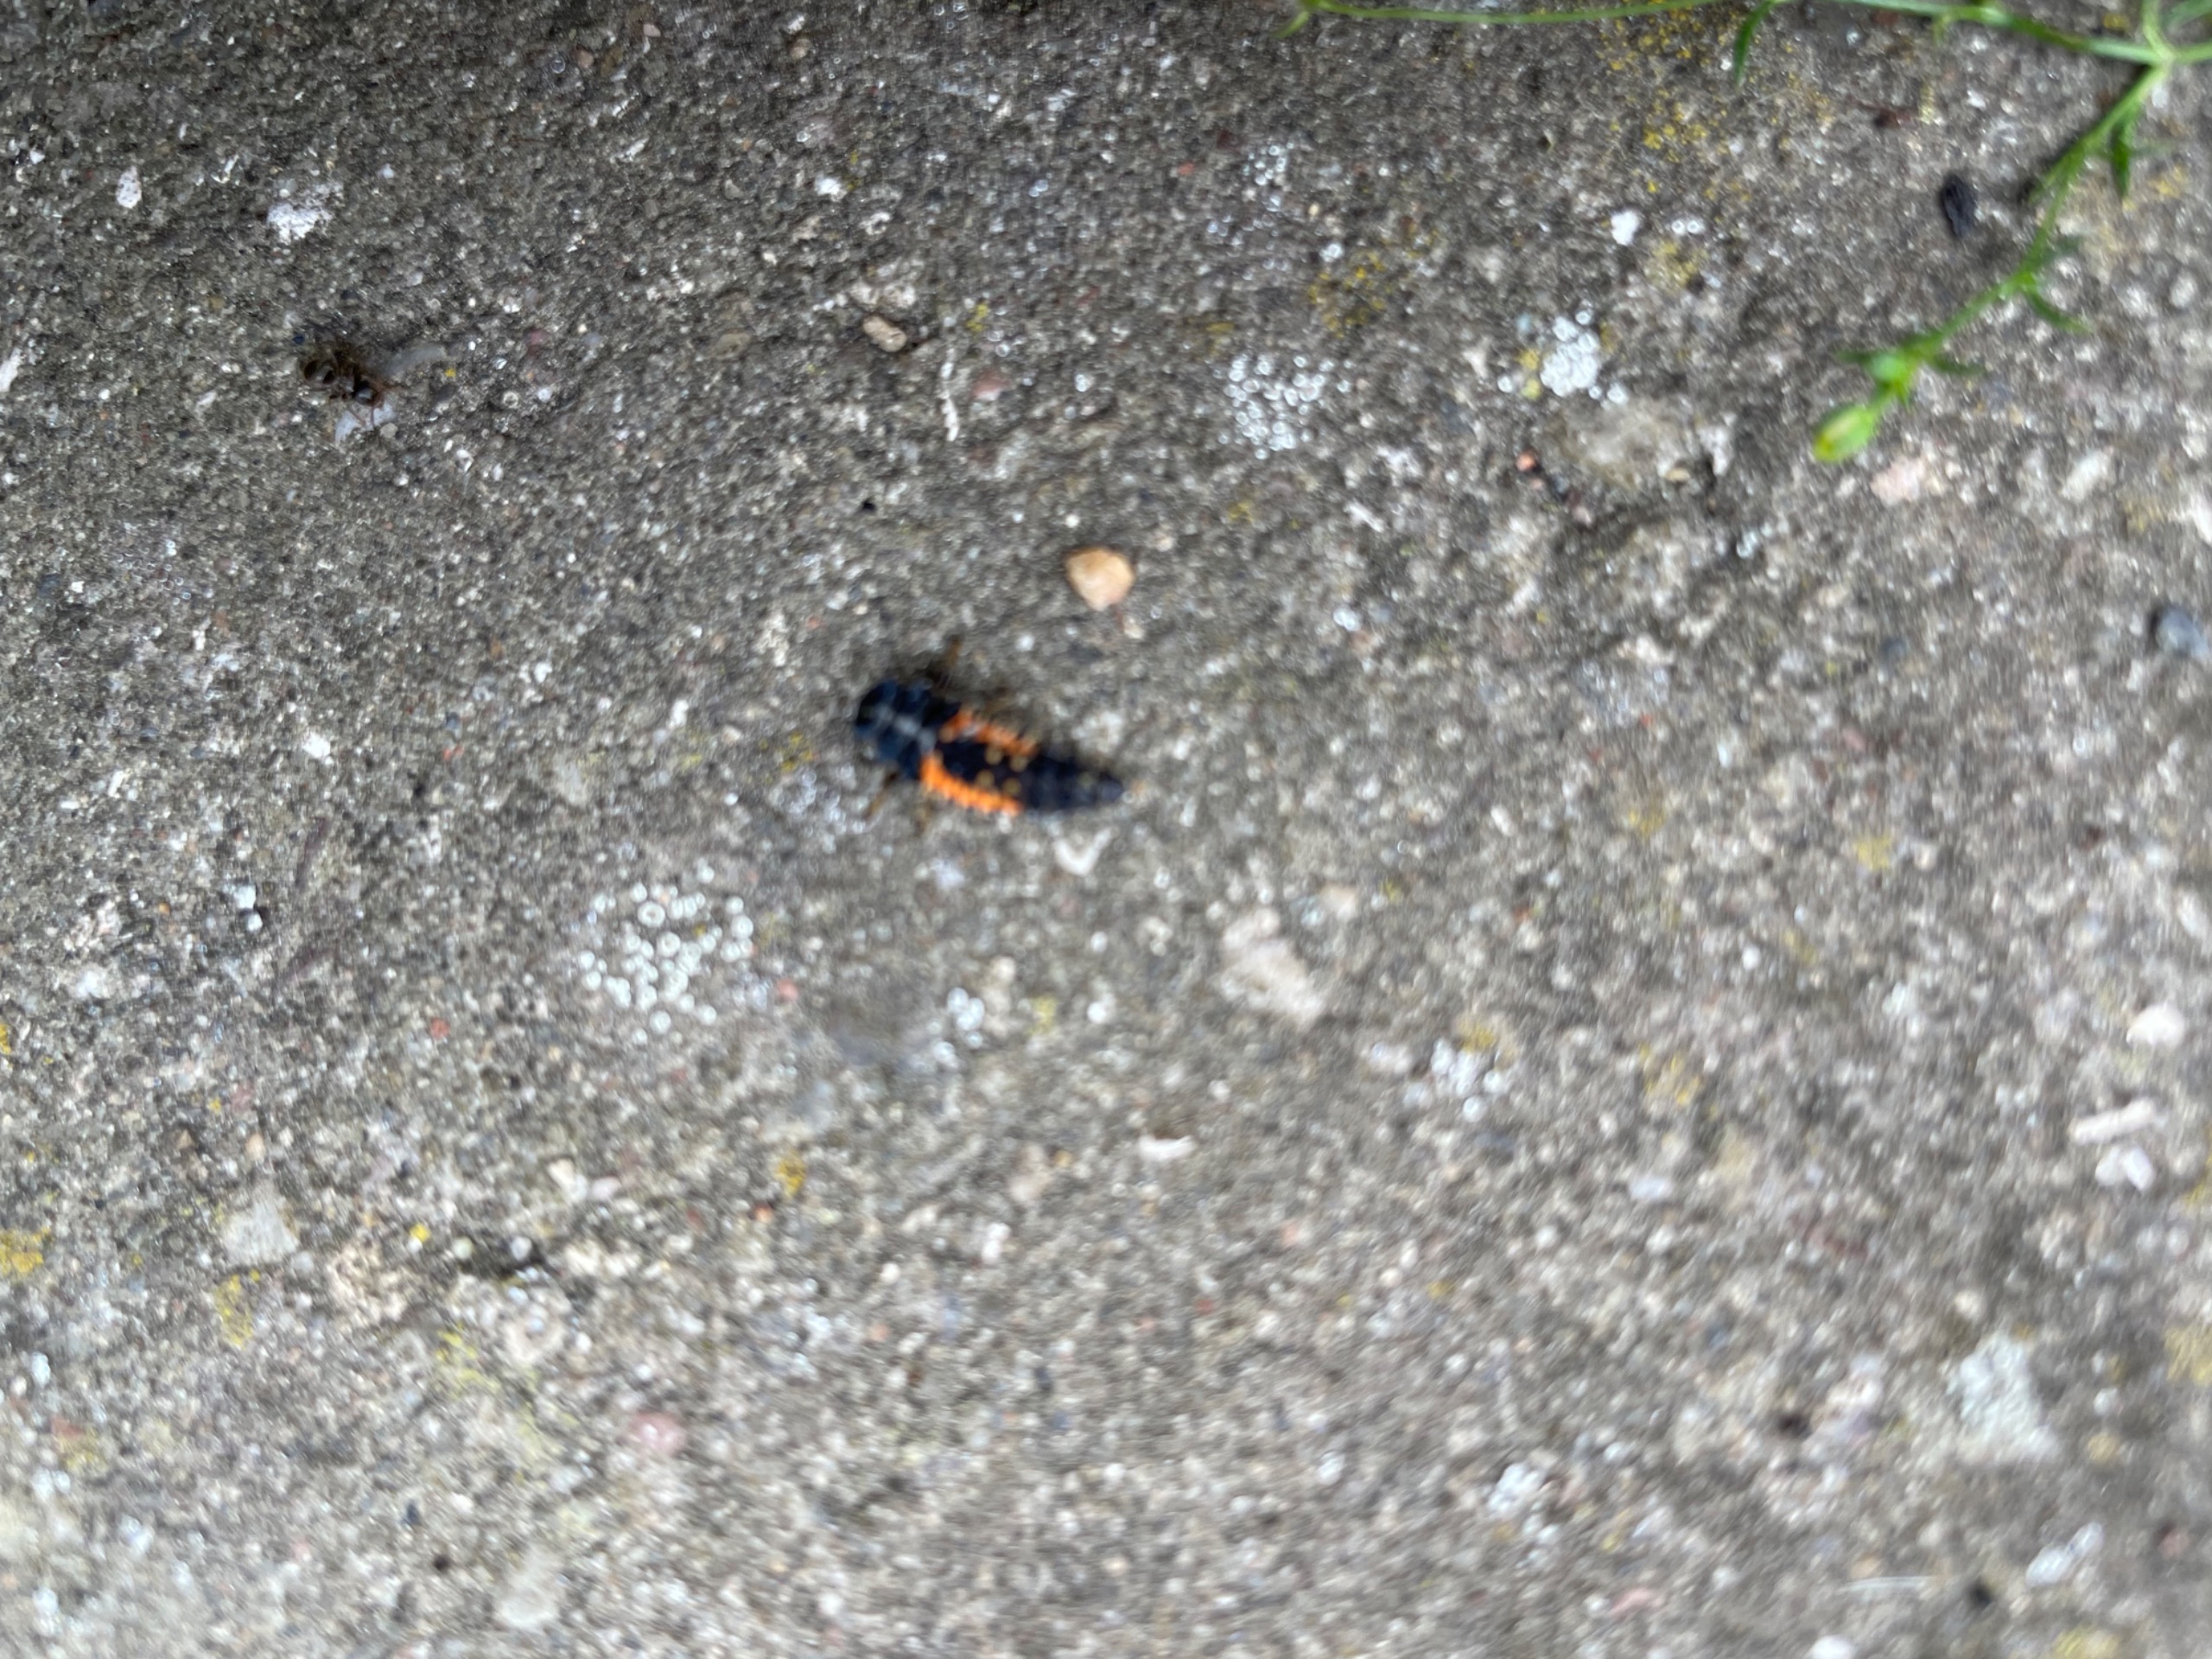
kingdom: Animalia
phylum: Arthropoda
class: Insecta
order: Coleoptera
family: Coccinellidae
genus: Harmonia
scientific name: Harmonia axyridis
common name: Harlekinmariehøne
